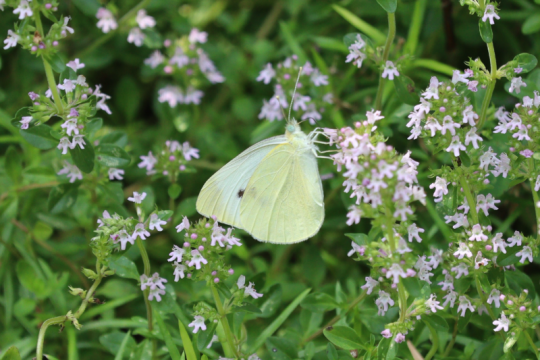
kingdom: Animalia
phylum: Arthropoda
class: Insecta
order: Lepidoptera
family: Pieridae
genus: Pieris
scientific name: Pieris rapae
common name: Cabbage White
